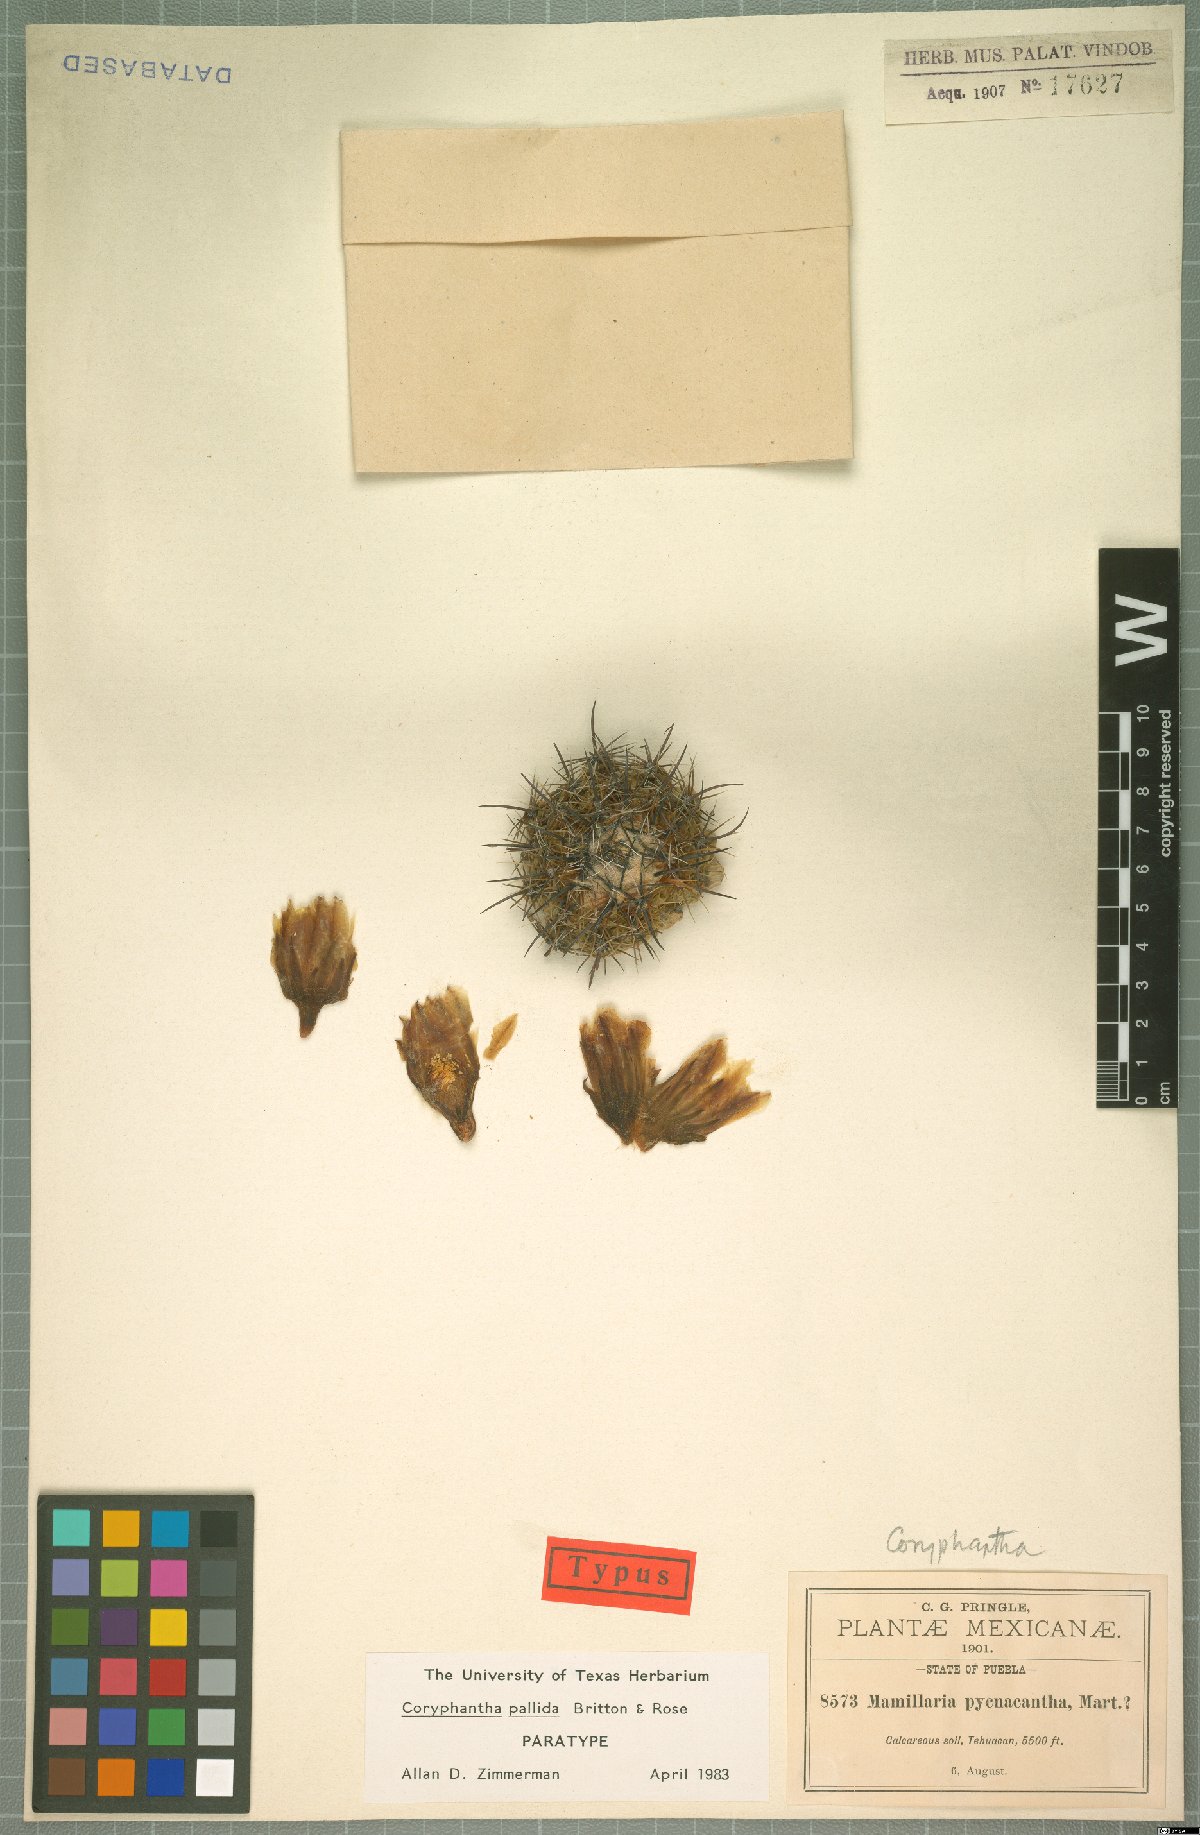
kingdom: Plantae
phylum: Tracheophyta
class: Magnoliopsida
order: Caryophyllales
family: Cactaceae
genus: Coryphantha
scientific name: Coryphantha pallida
